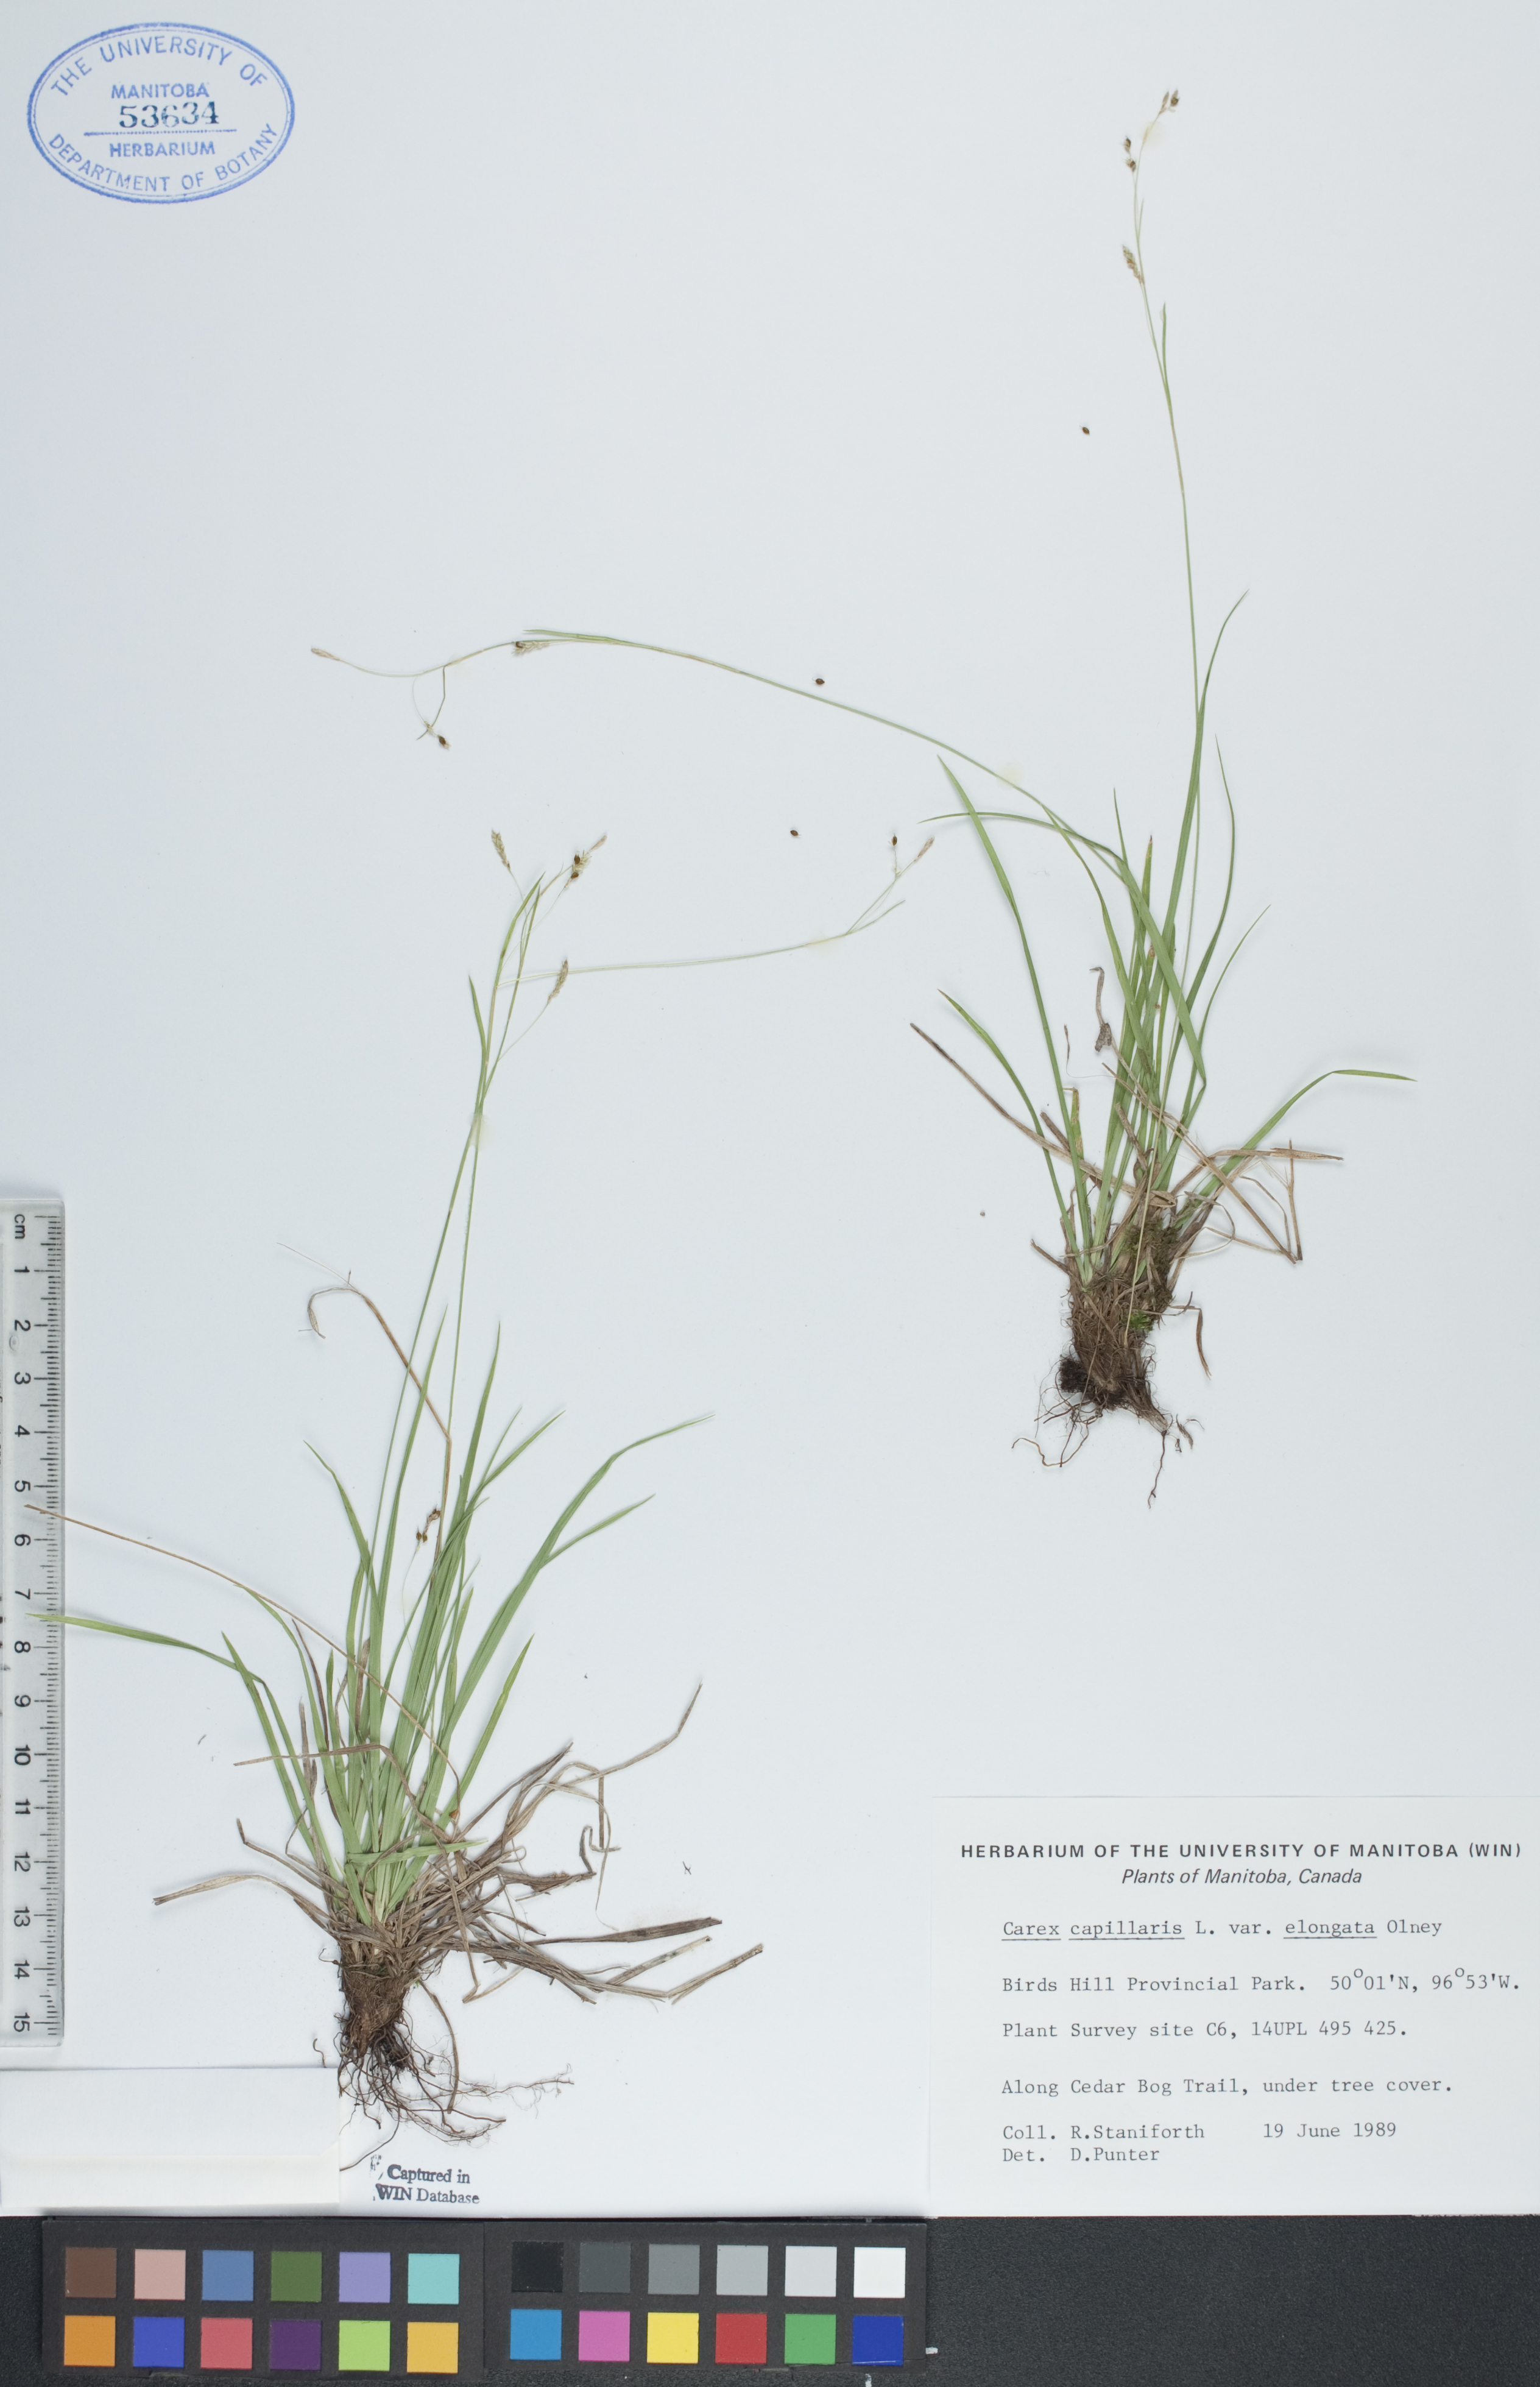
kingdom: Plantae
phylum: Tracheophyta
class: Liliopsida
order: Poales
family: Cyperaceae
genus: Carex
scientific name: Carex capillaris
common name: Hair sedge
